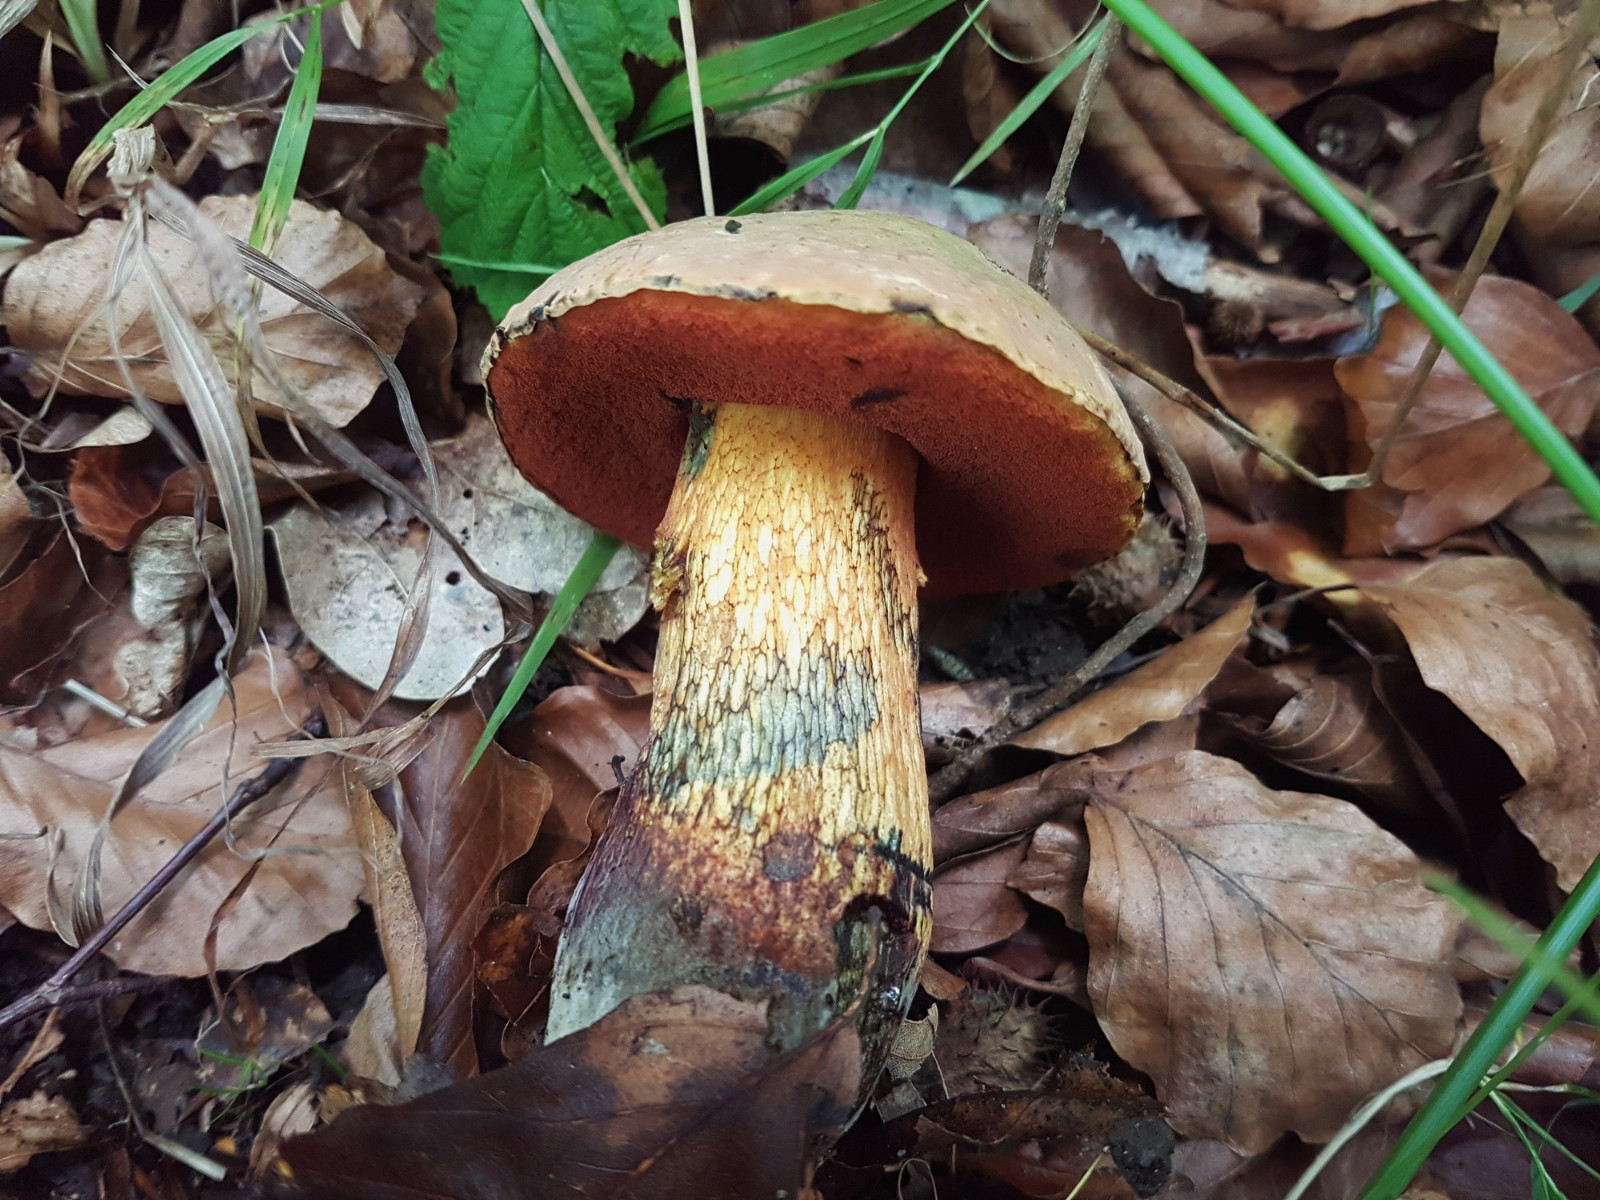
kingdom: Fungi
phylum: Basidiomycota
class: Agaricomycetes
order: Boletales
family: Boletaceae
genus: Suillellus
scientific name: Suillellus luridus
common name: netstokket indigorørhat
